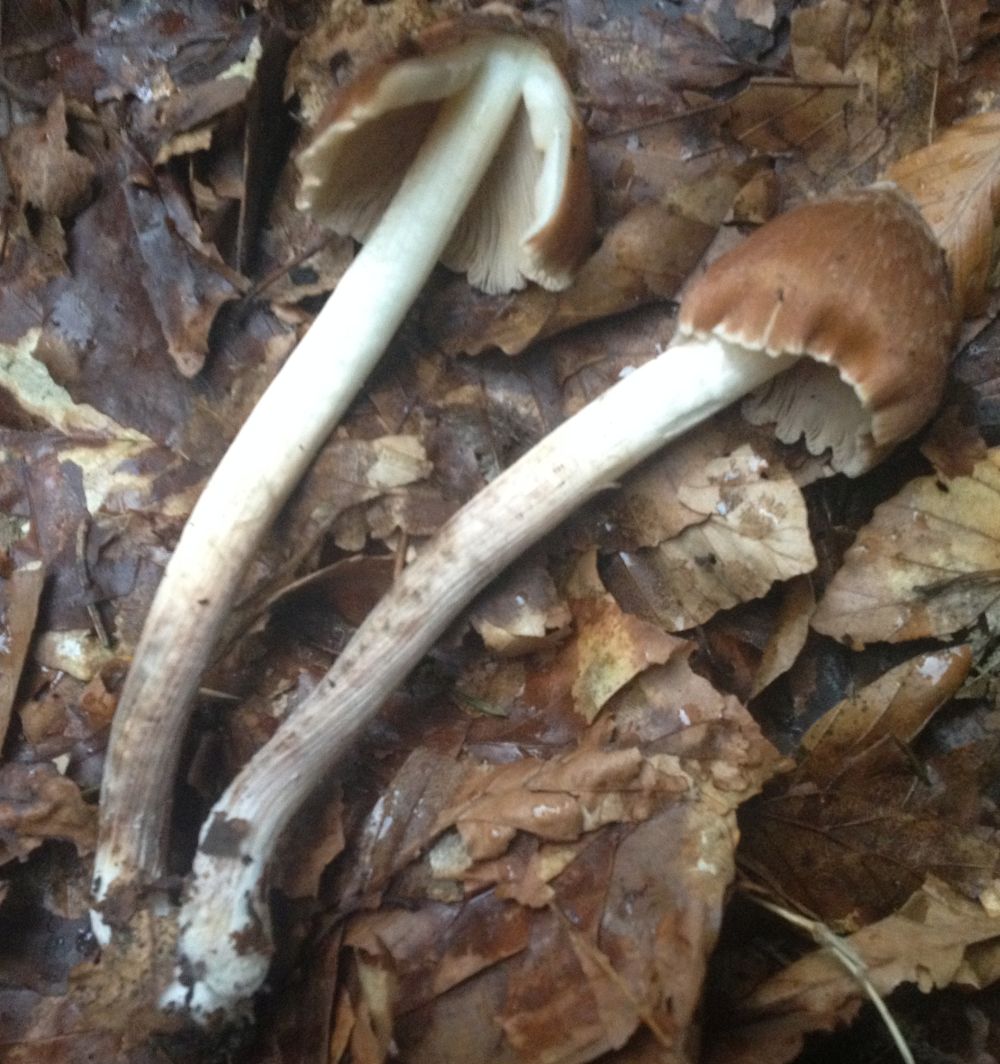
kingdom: Fungi
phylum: Basidiomycota
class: Agaricomycetes
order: Agaricales
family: Inocybaceae
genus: Inosperma
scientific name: Inosperma
